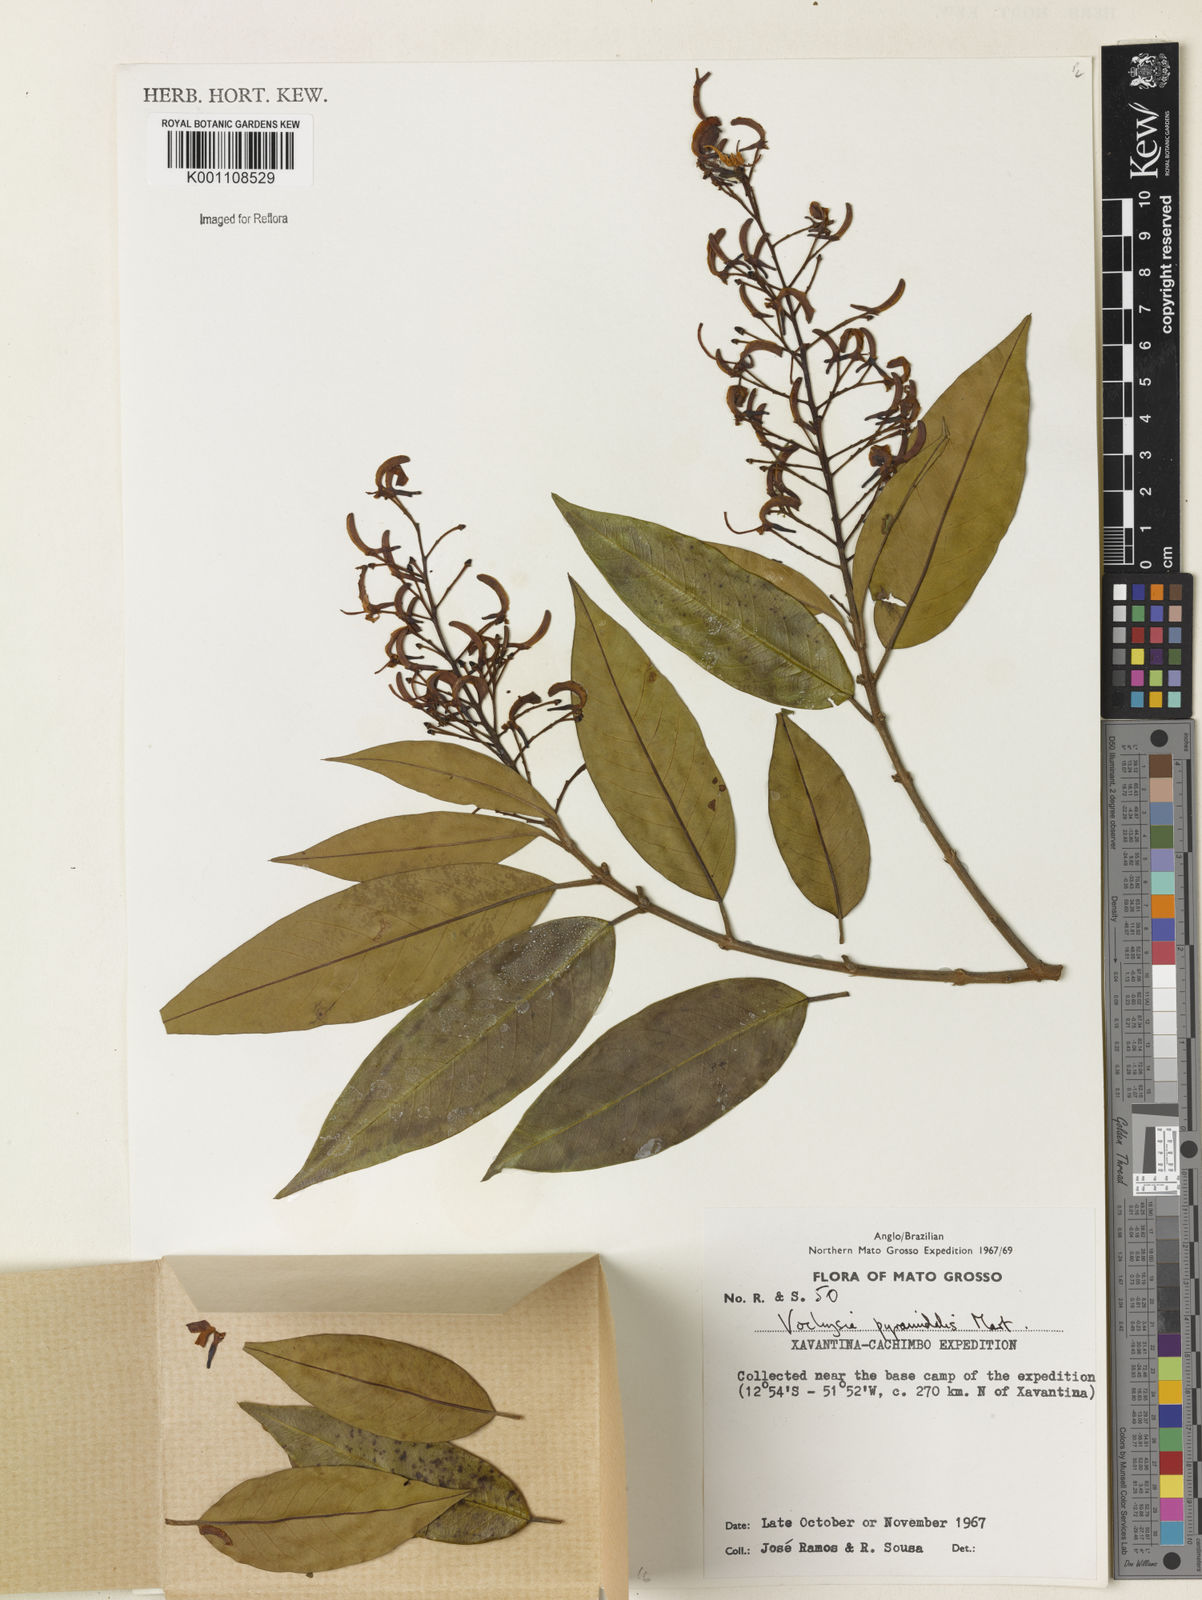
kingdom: Plantae
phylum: Tracheophyta
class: Magnoliopsida
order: Myrtales
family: Vochysiaceae
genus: Vochysia
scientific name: Vochysia pyramidalis
